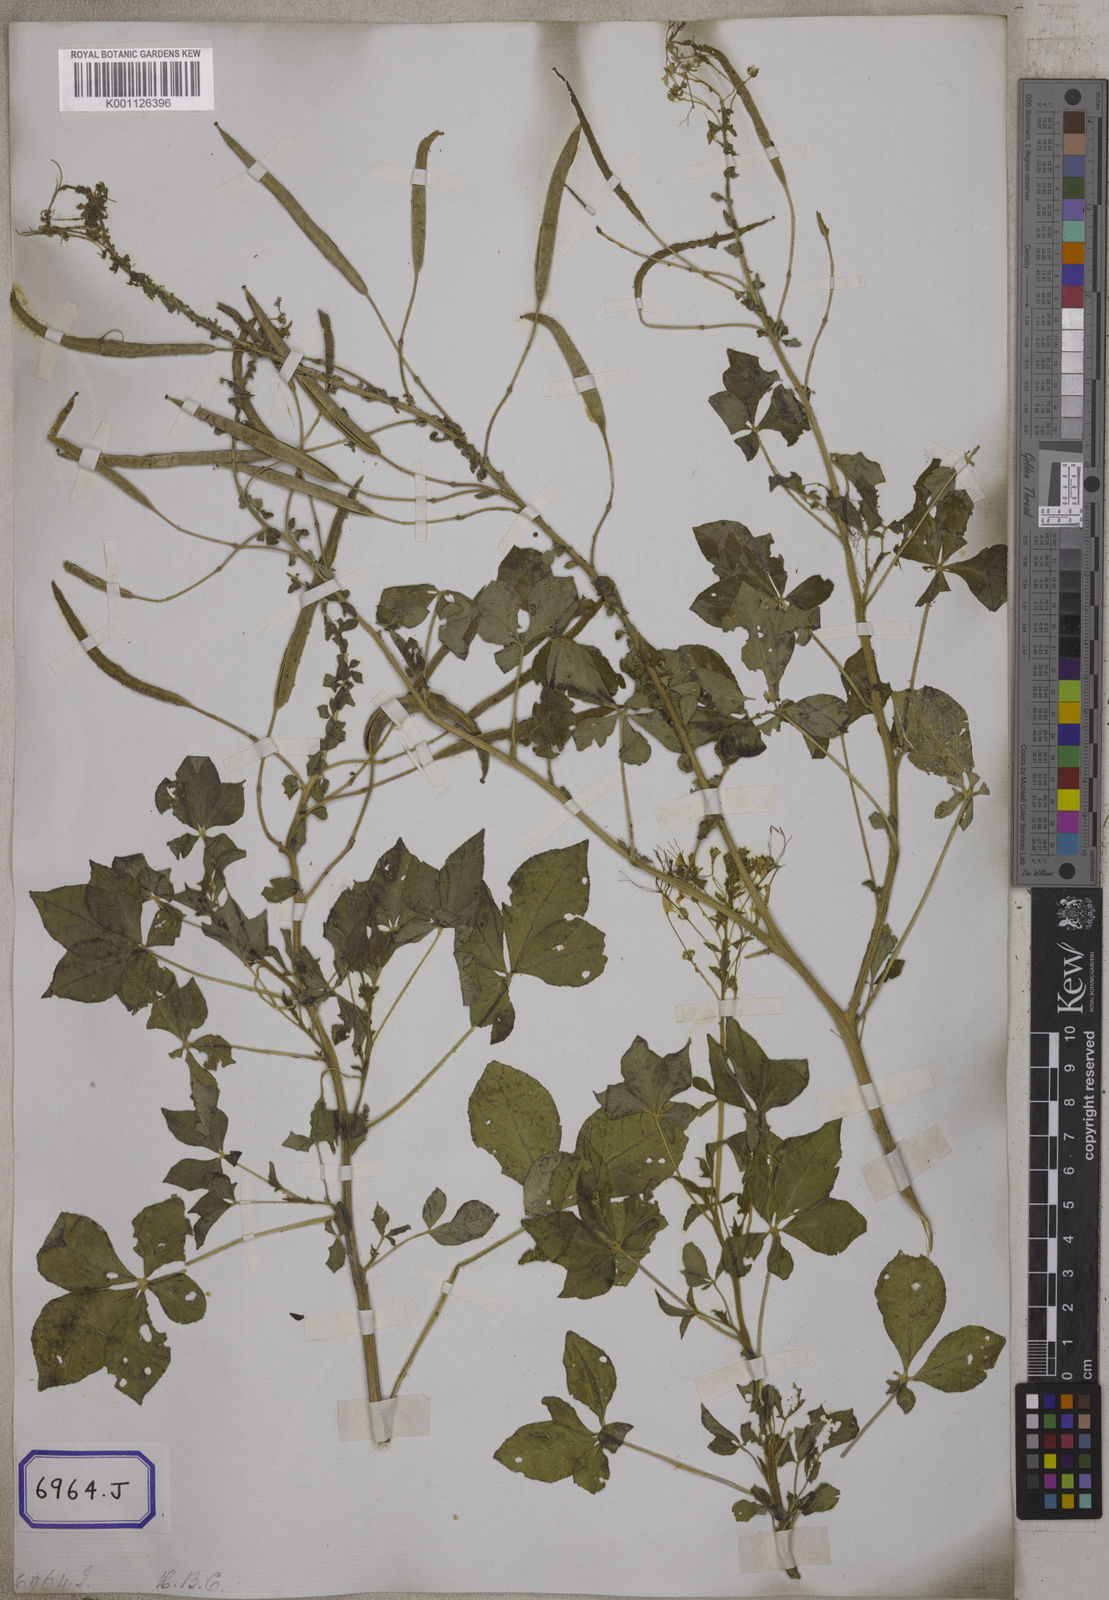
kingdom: Plantae
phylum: Tracheophyta
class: Magnoliopsida
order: Brassicales
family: Cleomaceae
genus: Gynandropsis
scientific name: Gynandropsis gynandra
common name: Spiderwisp
